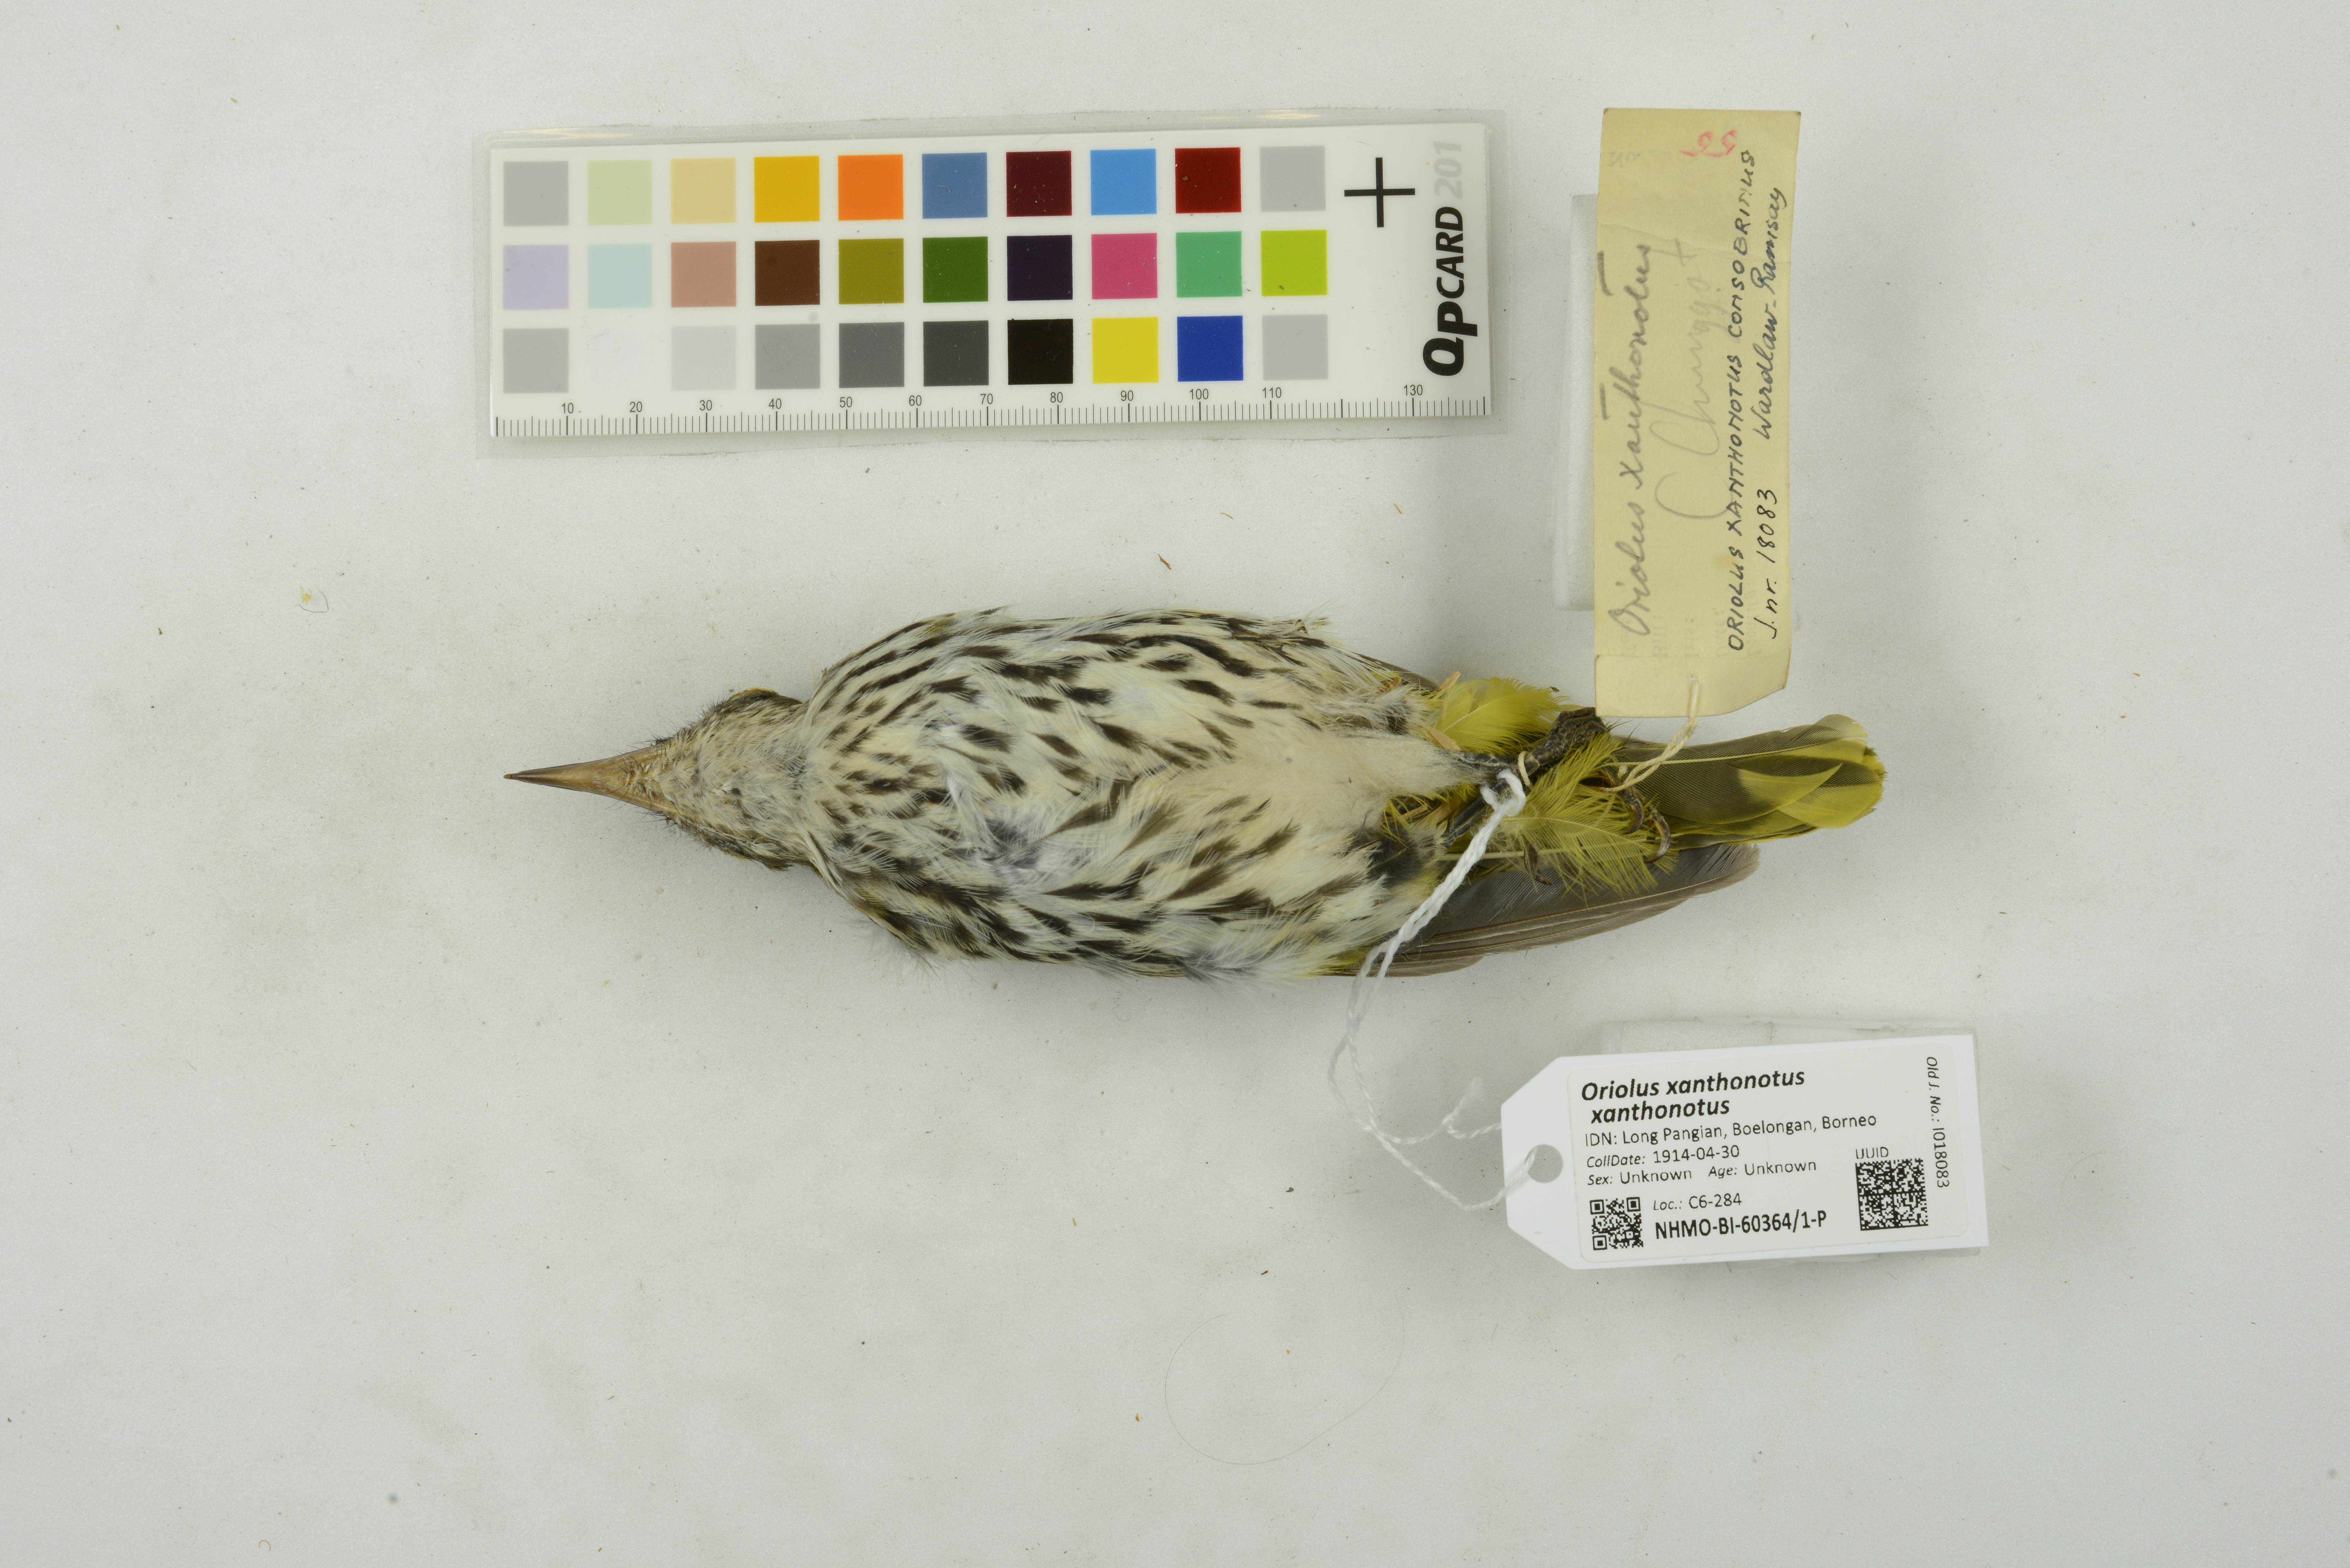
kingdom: Animalia
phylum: Chordata
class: Aves
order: Passeriformes
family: Oriolidae
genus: Oriolus
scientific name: Oriolus xanthonotus
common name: Dark-throated oriole
